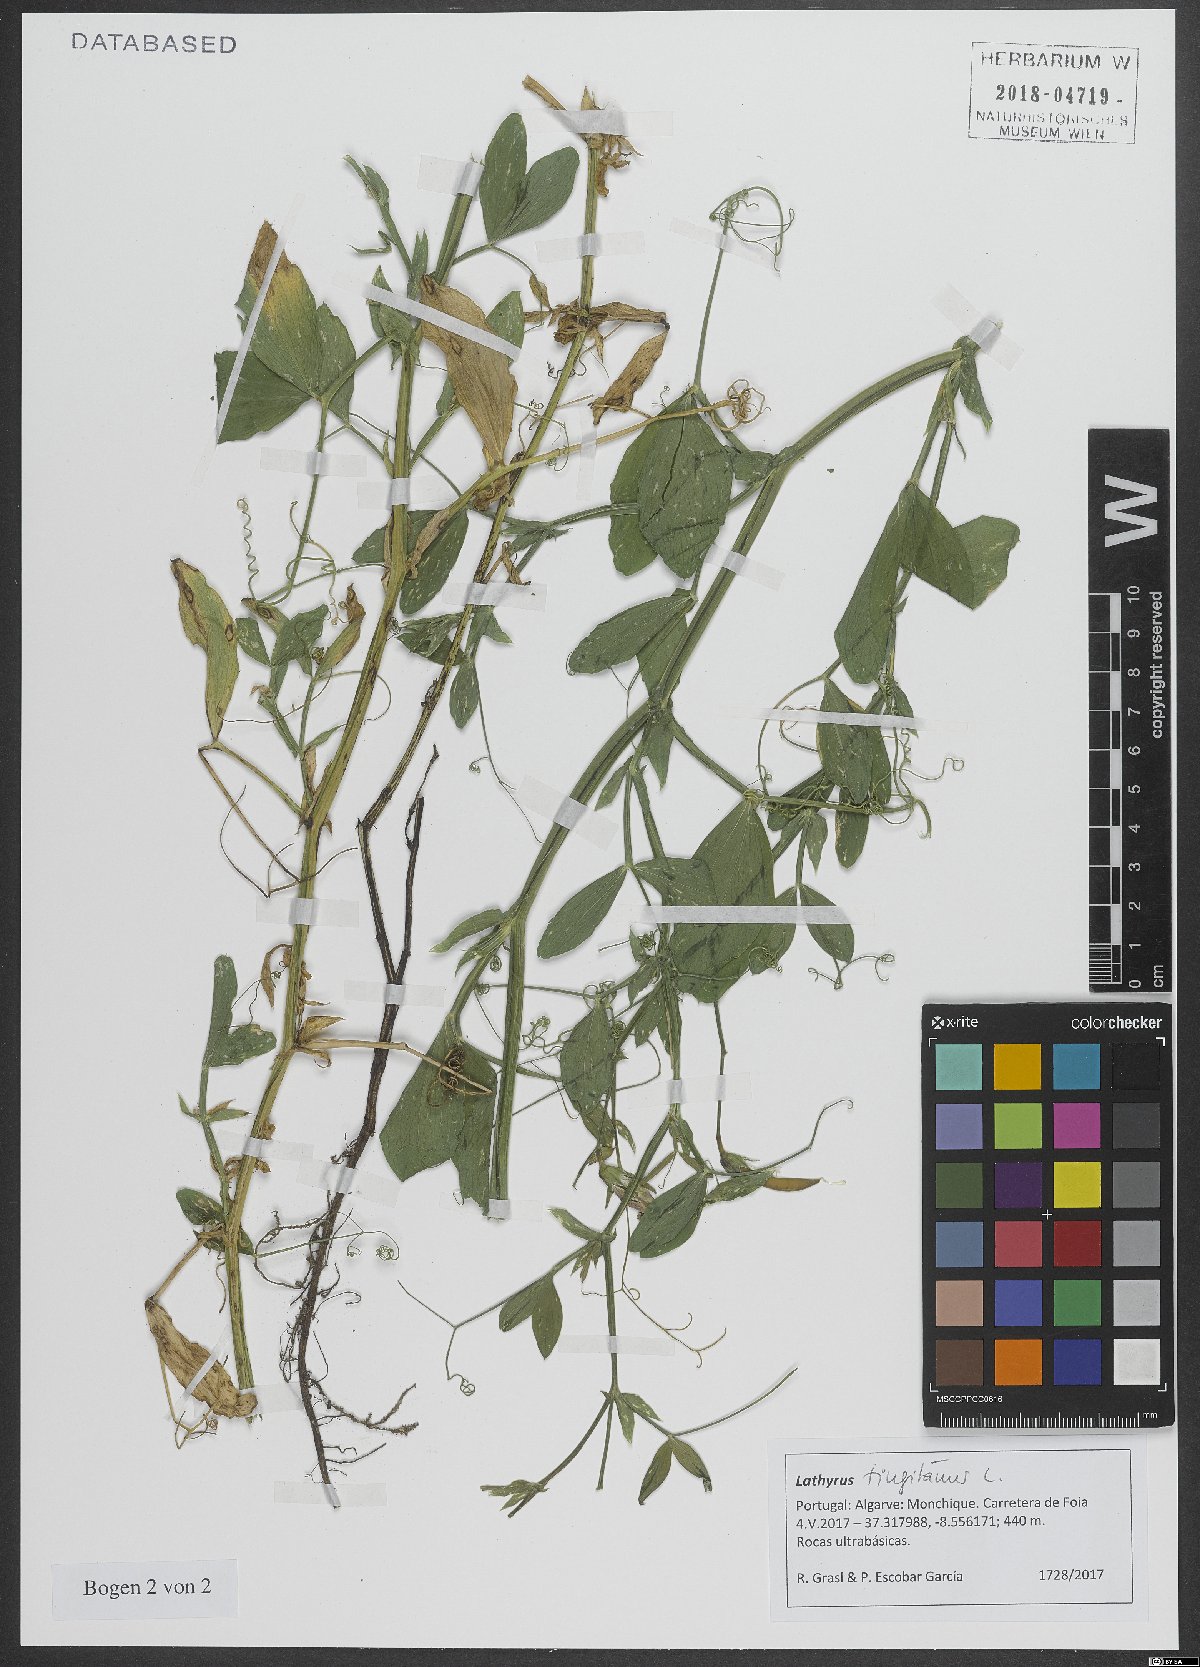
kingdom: Plantae
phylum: Tracheophyta
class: Magnoliopsida
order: Fabales
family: Fabaceae
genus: Lathyrus
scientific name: Lathyrus tingitanus
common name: Tangier pea
